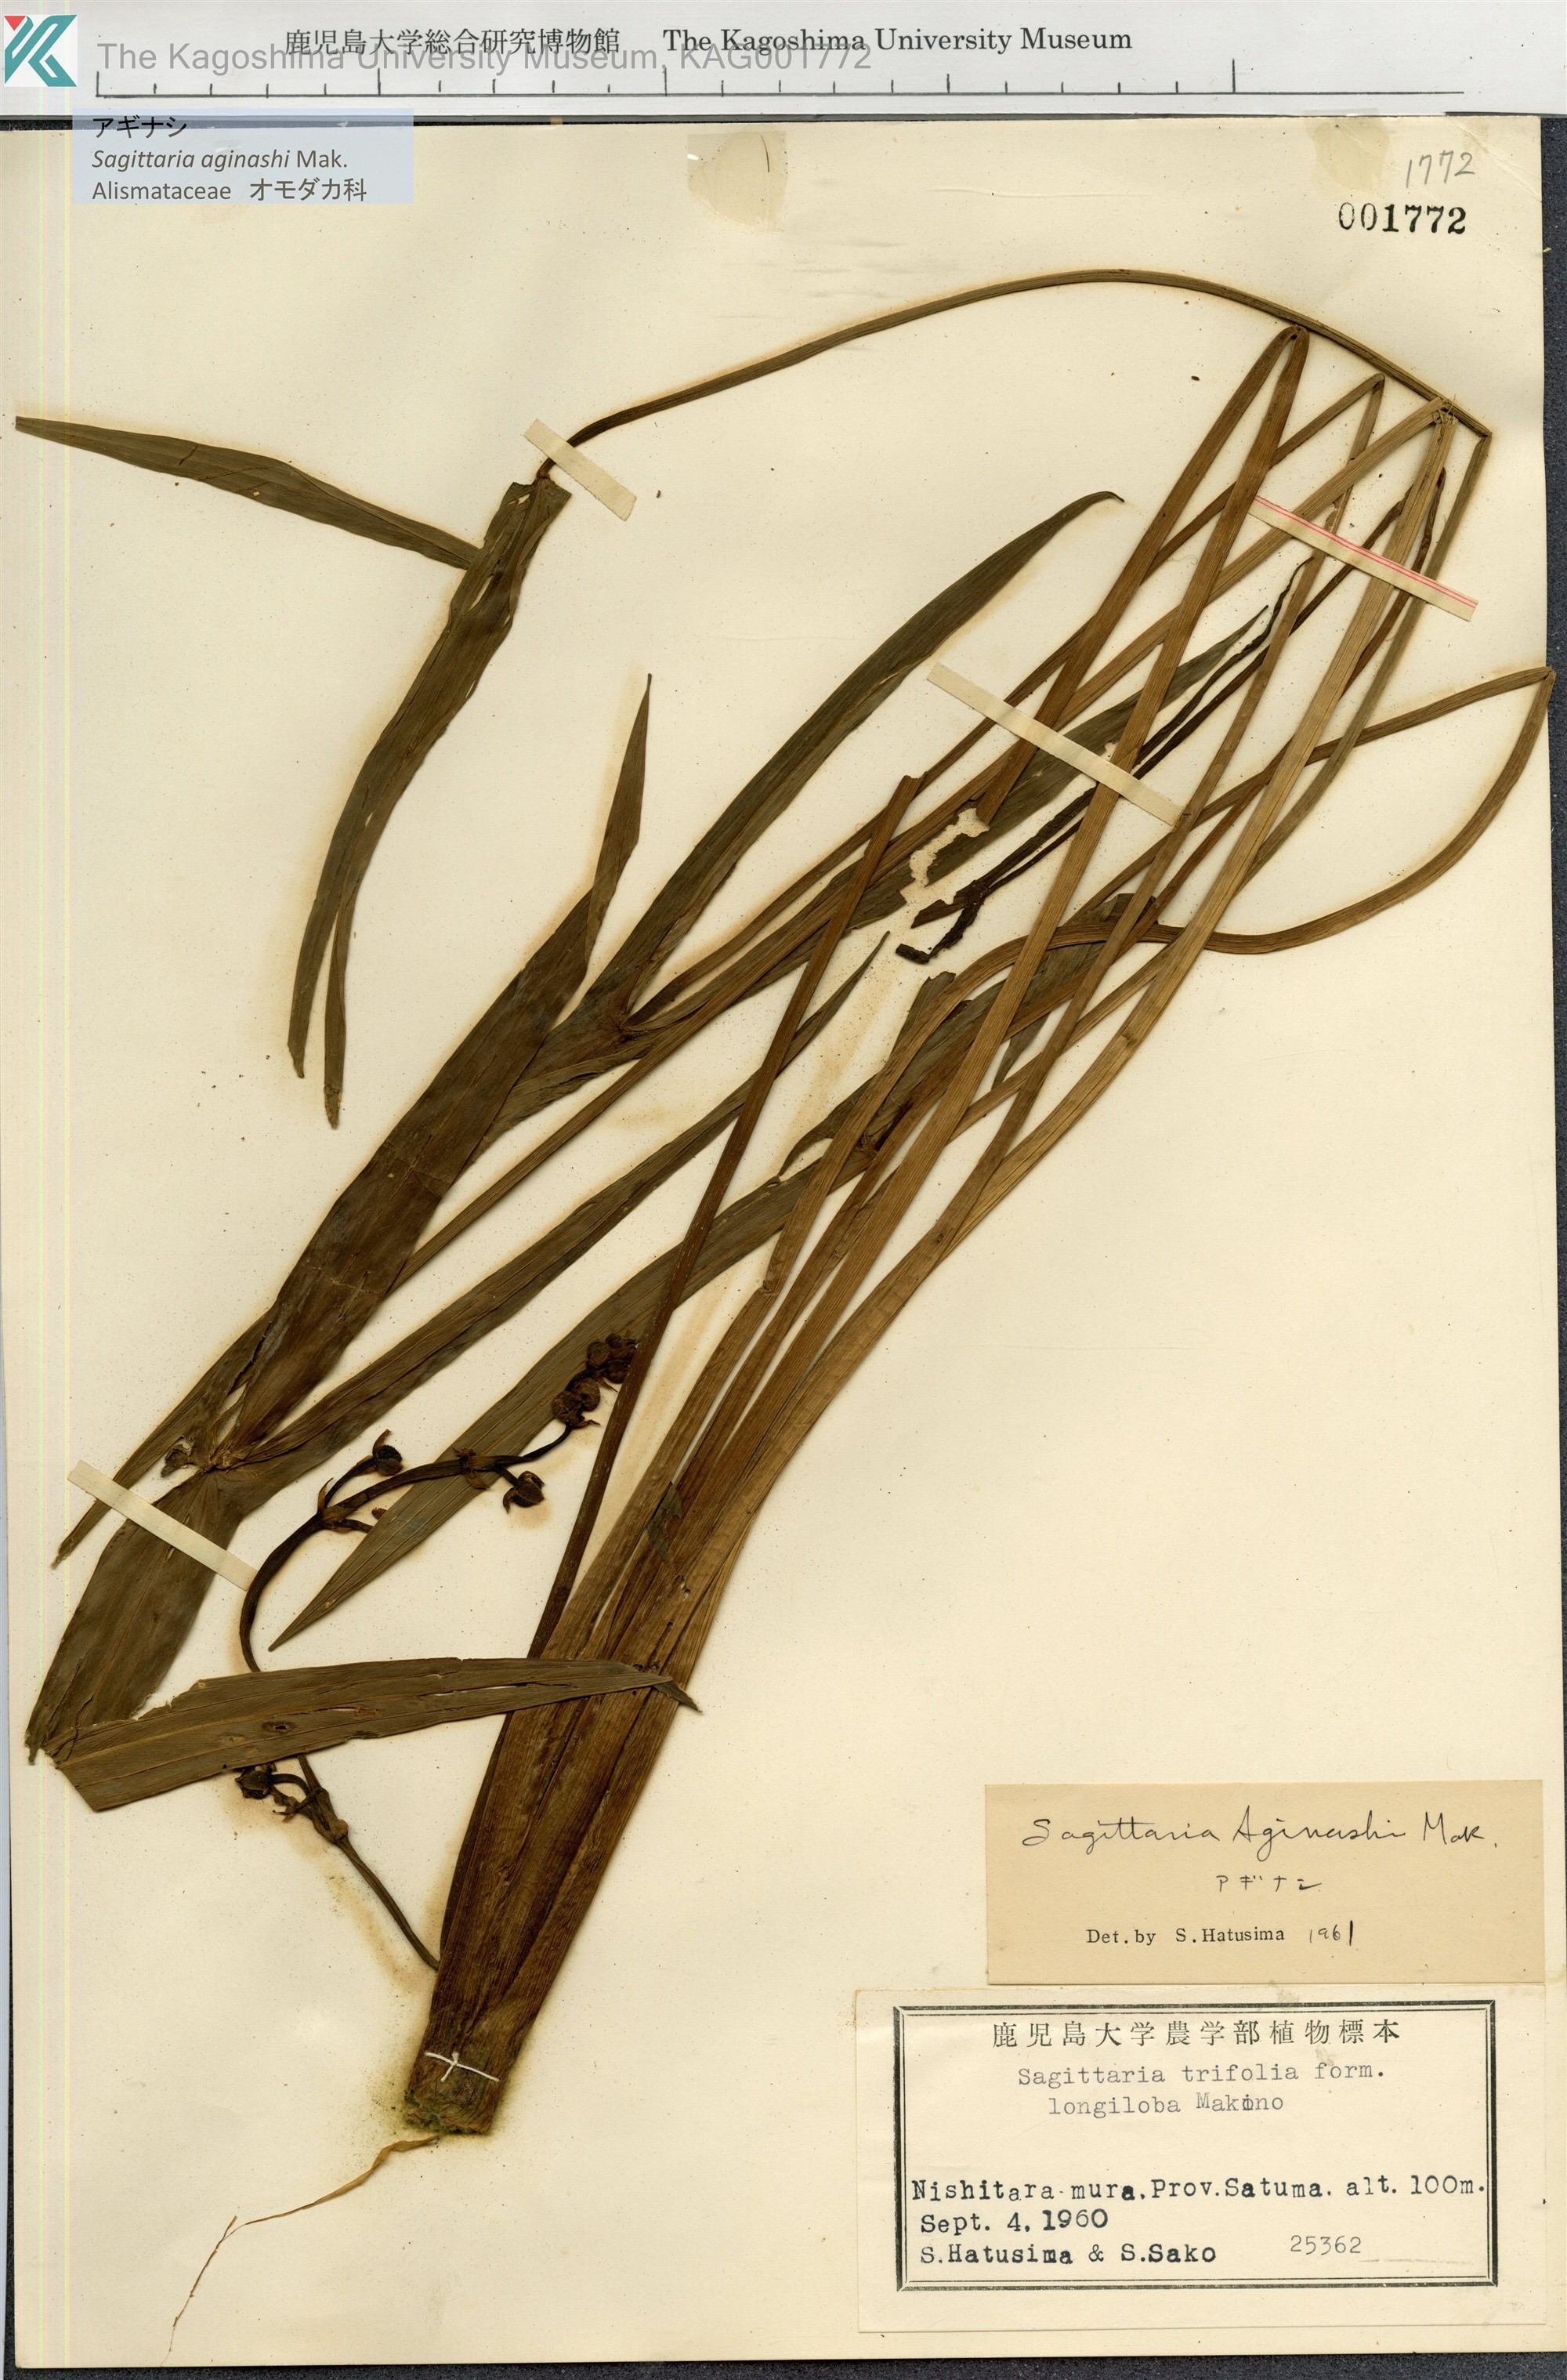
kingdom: Plantae
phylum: Tracheophyta
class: Liliopsida
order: Alismatales
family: Alismataceae
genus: Sagittaria
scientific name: Sagittaria aginashi
